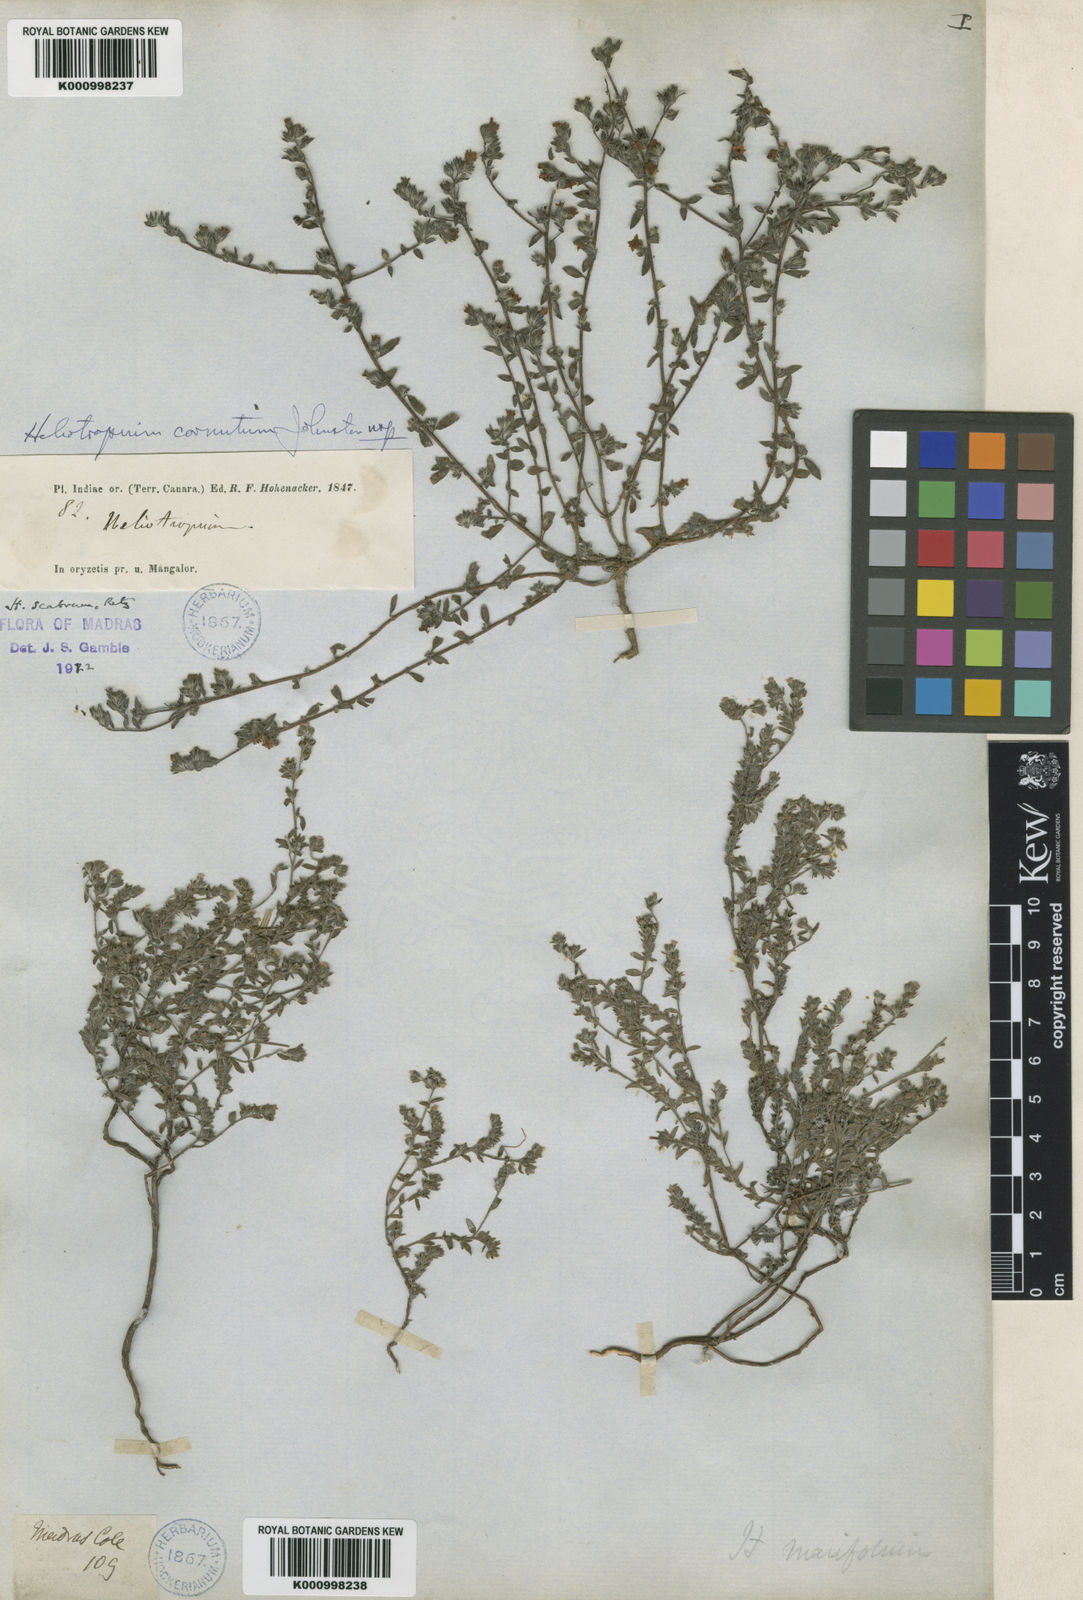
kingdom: Plantae
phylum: Tracheophyta
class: Magnoliopsida
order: Boraginales
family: Heliotropiaceae
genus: Euploca
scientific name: Euploca cornuta
